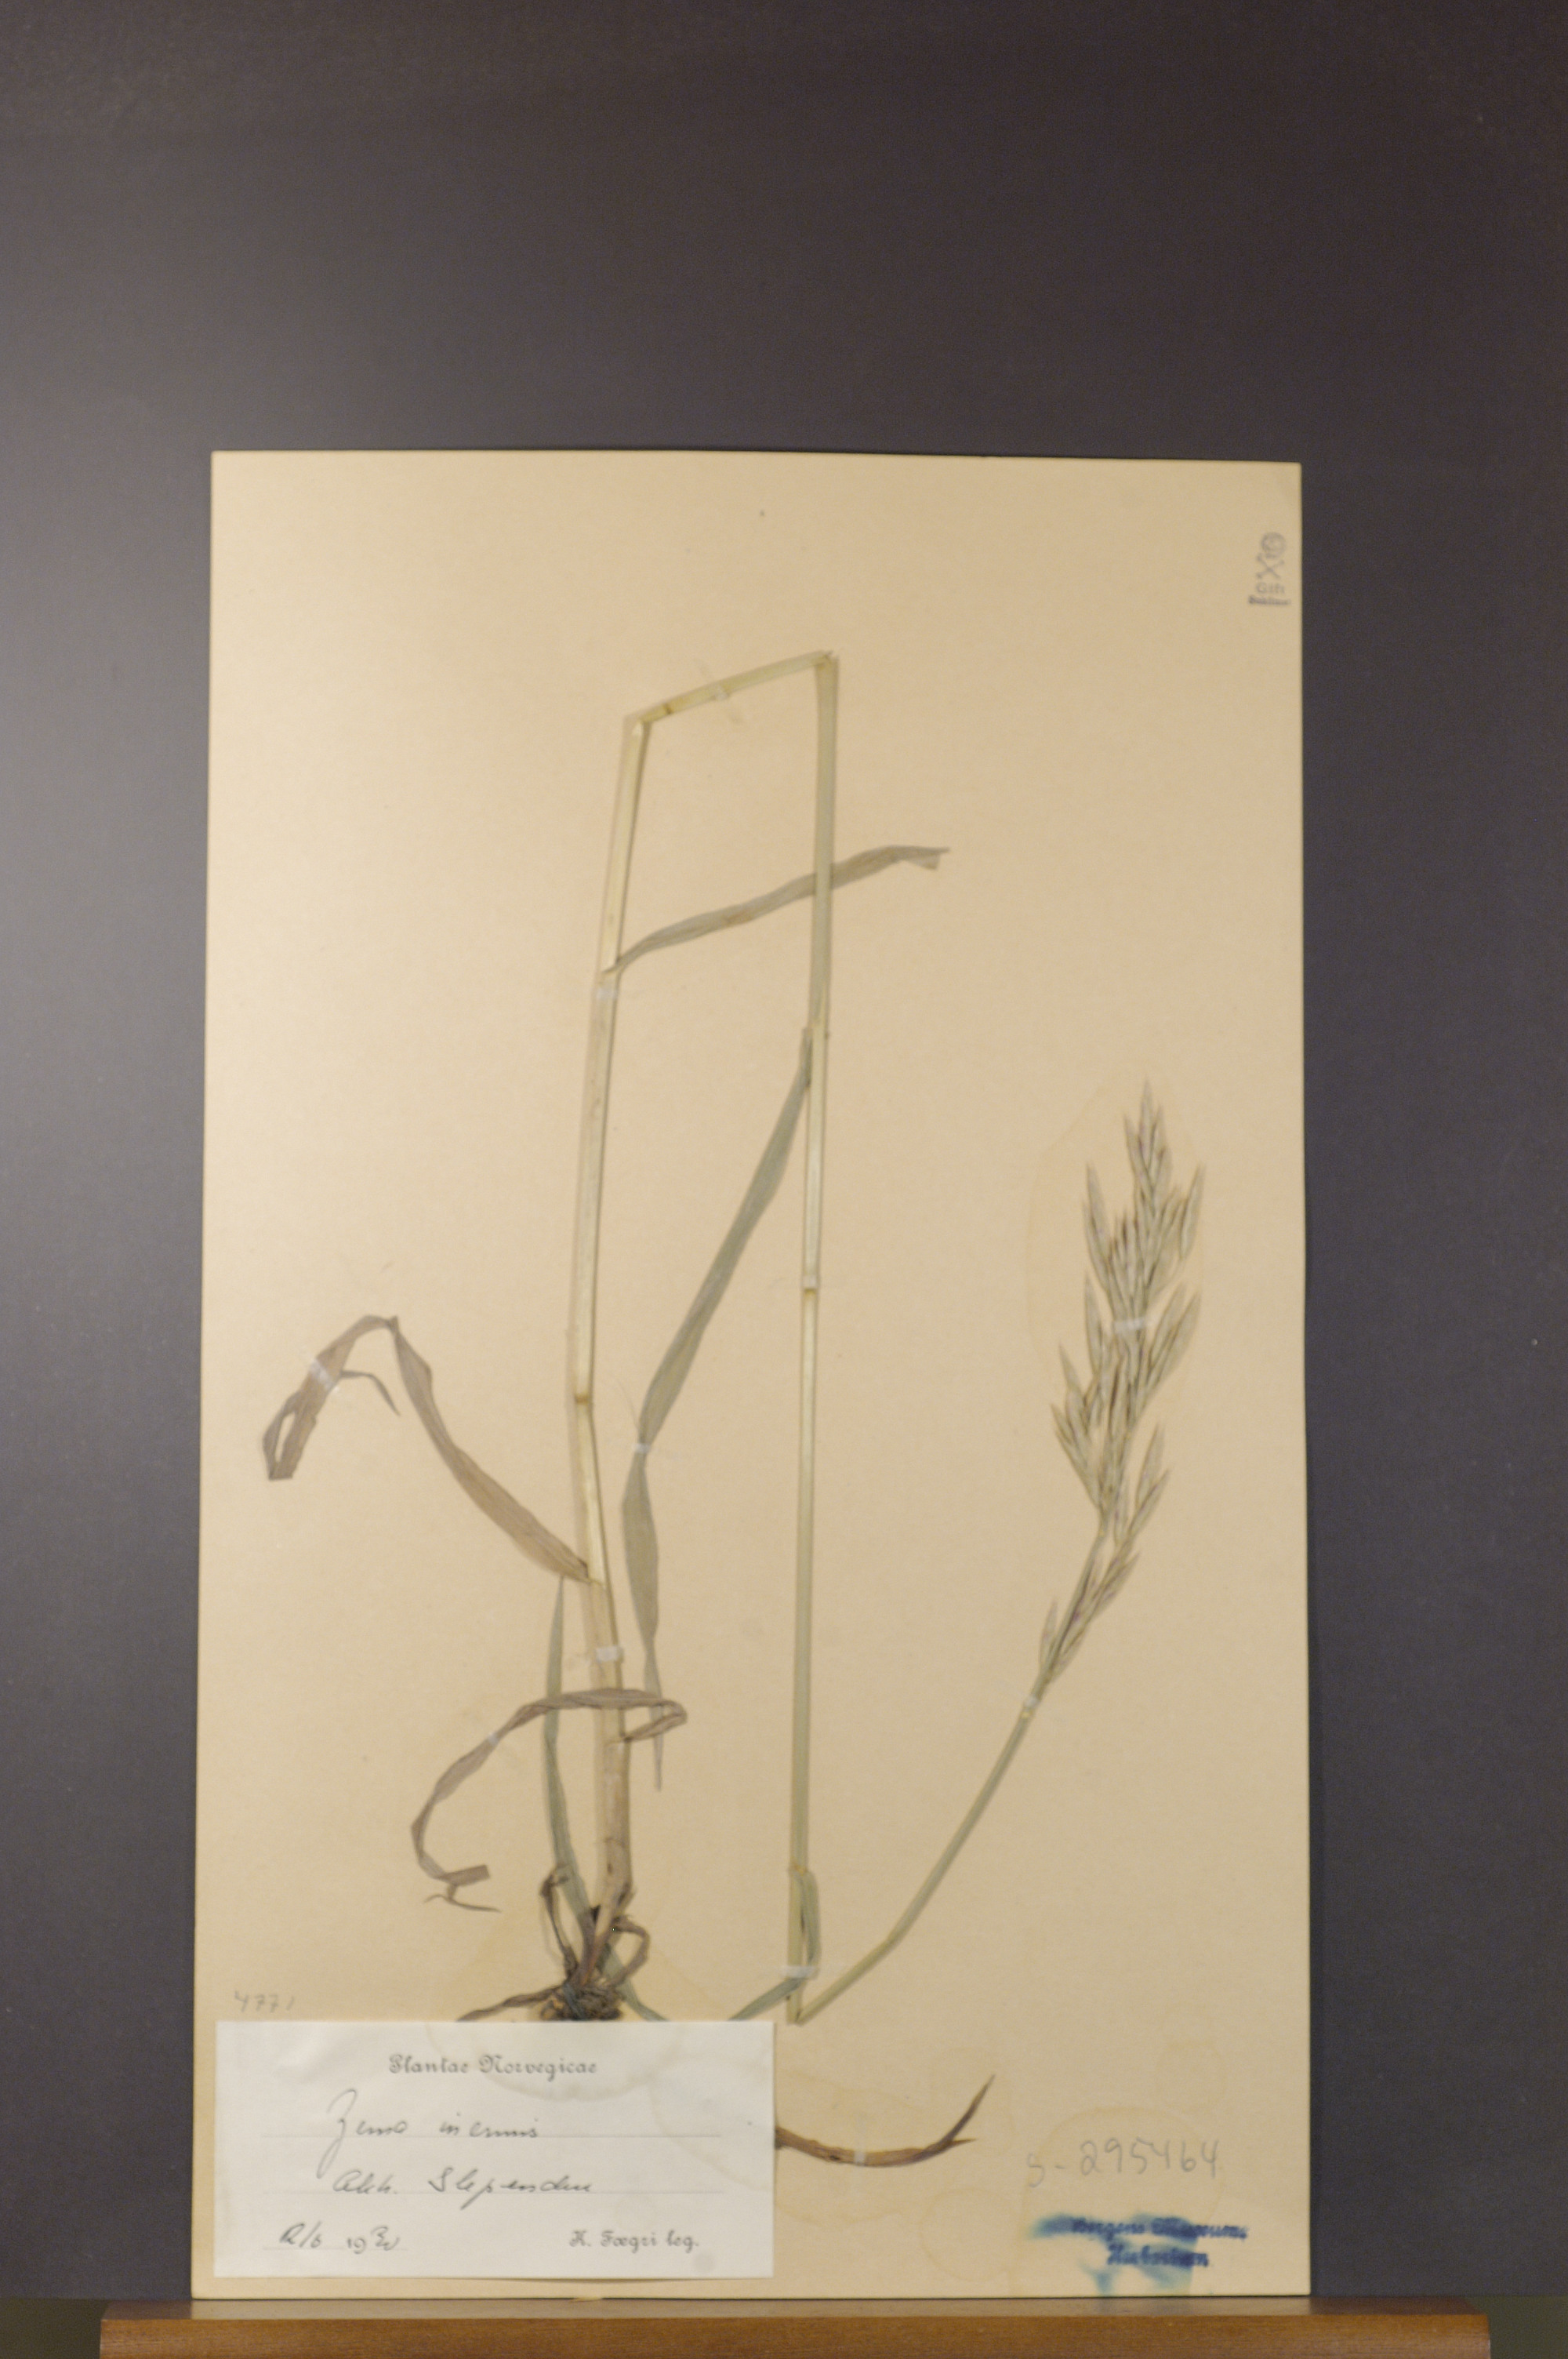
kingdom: Plantae
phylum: Tracheophyta
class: Liliopsida
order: Poales
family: Poaceae
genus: Bromus
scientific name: Bromus inermis
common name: Smooth brome
